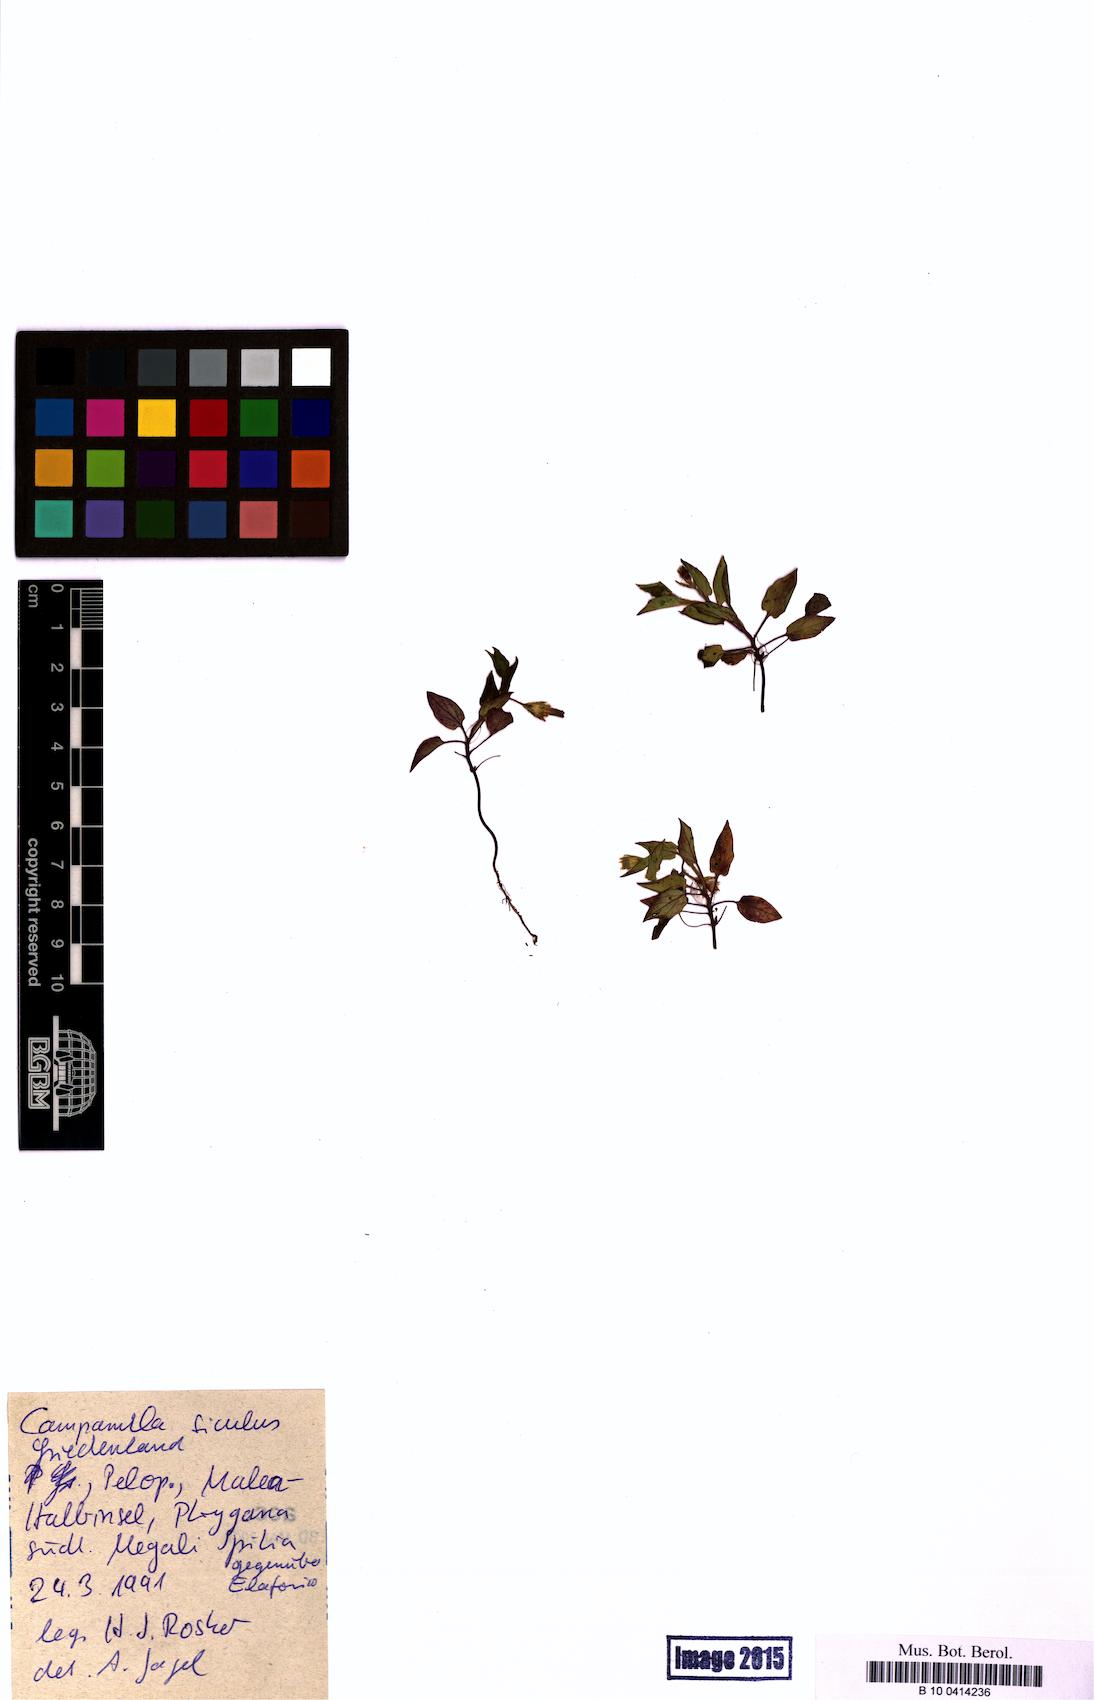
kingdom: Plantae
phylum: Tracheophyta
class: Magnoliopsida
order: Asterales
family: Campanulaceae
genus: Campanula
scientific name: Campanula
